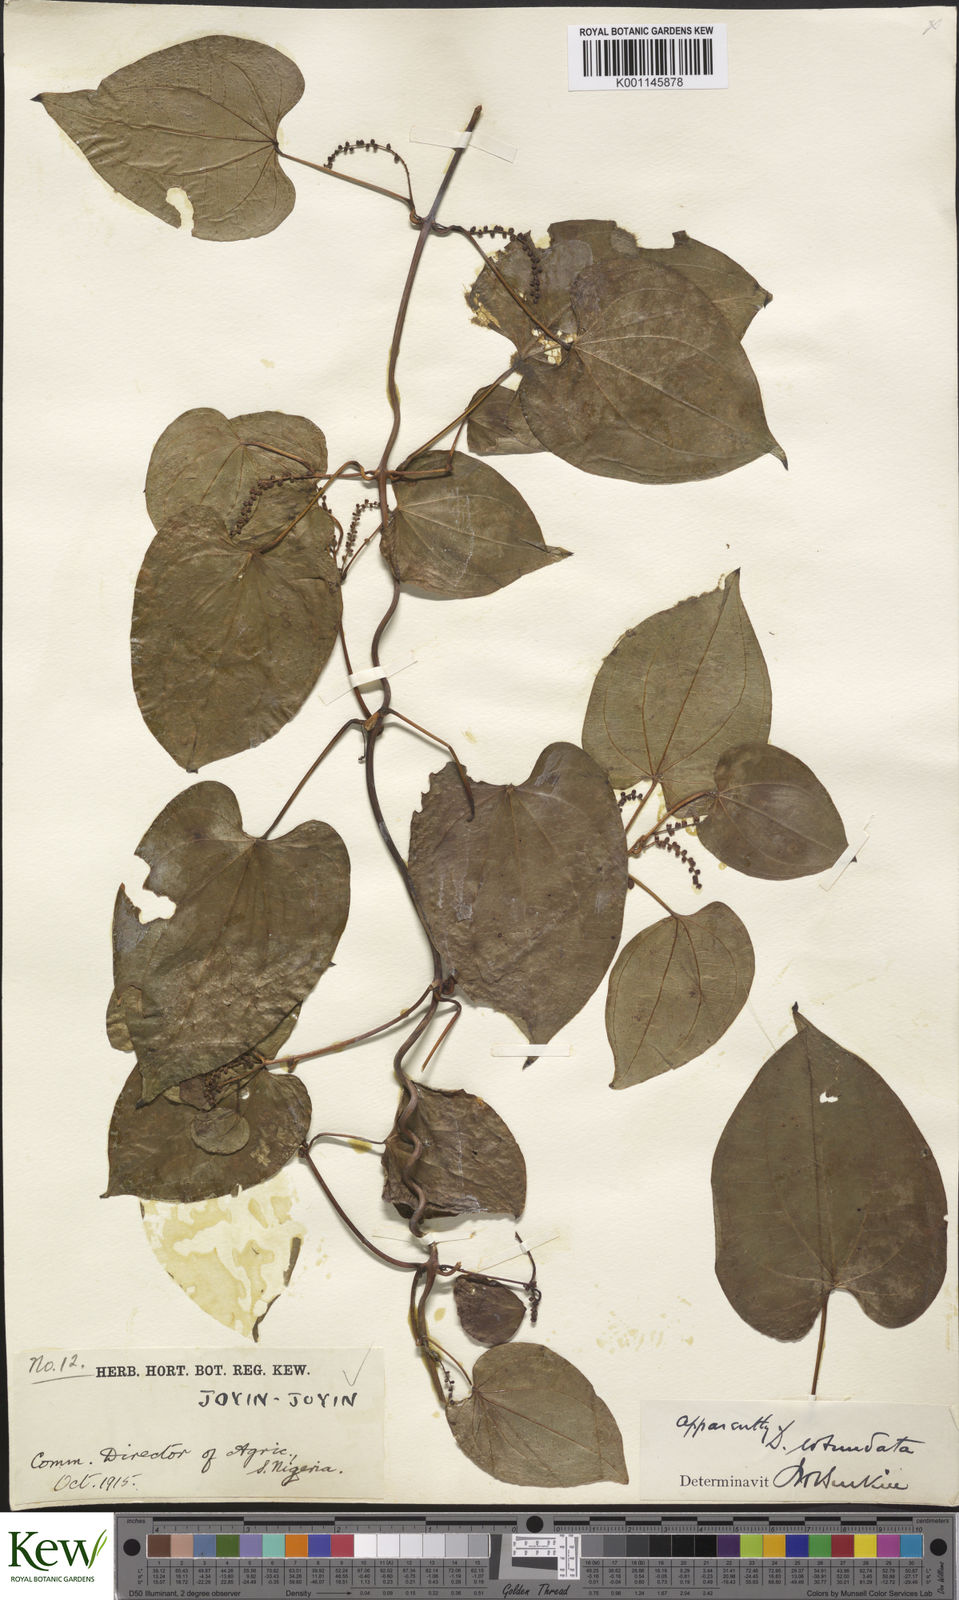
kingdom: Plantae
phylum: Tracheophyta
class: Liliopsida
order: Dioscoreales
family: Dioscoreaceae
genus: Dioscorea
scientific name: Dioscorea cayenensis
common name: Attoto yam
